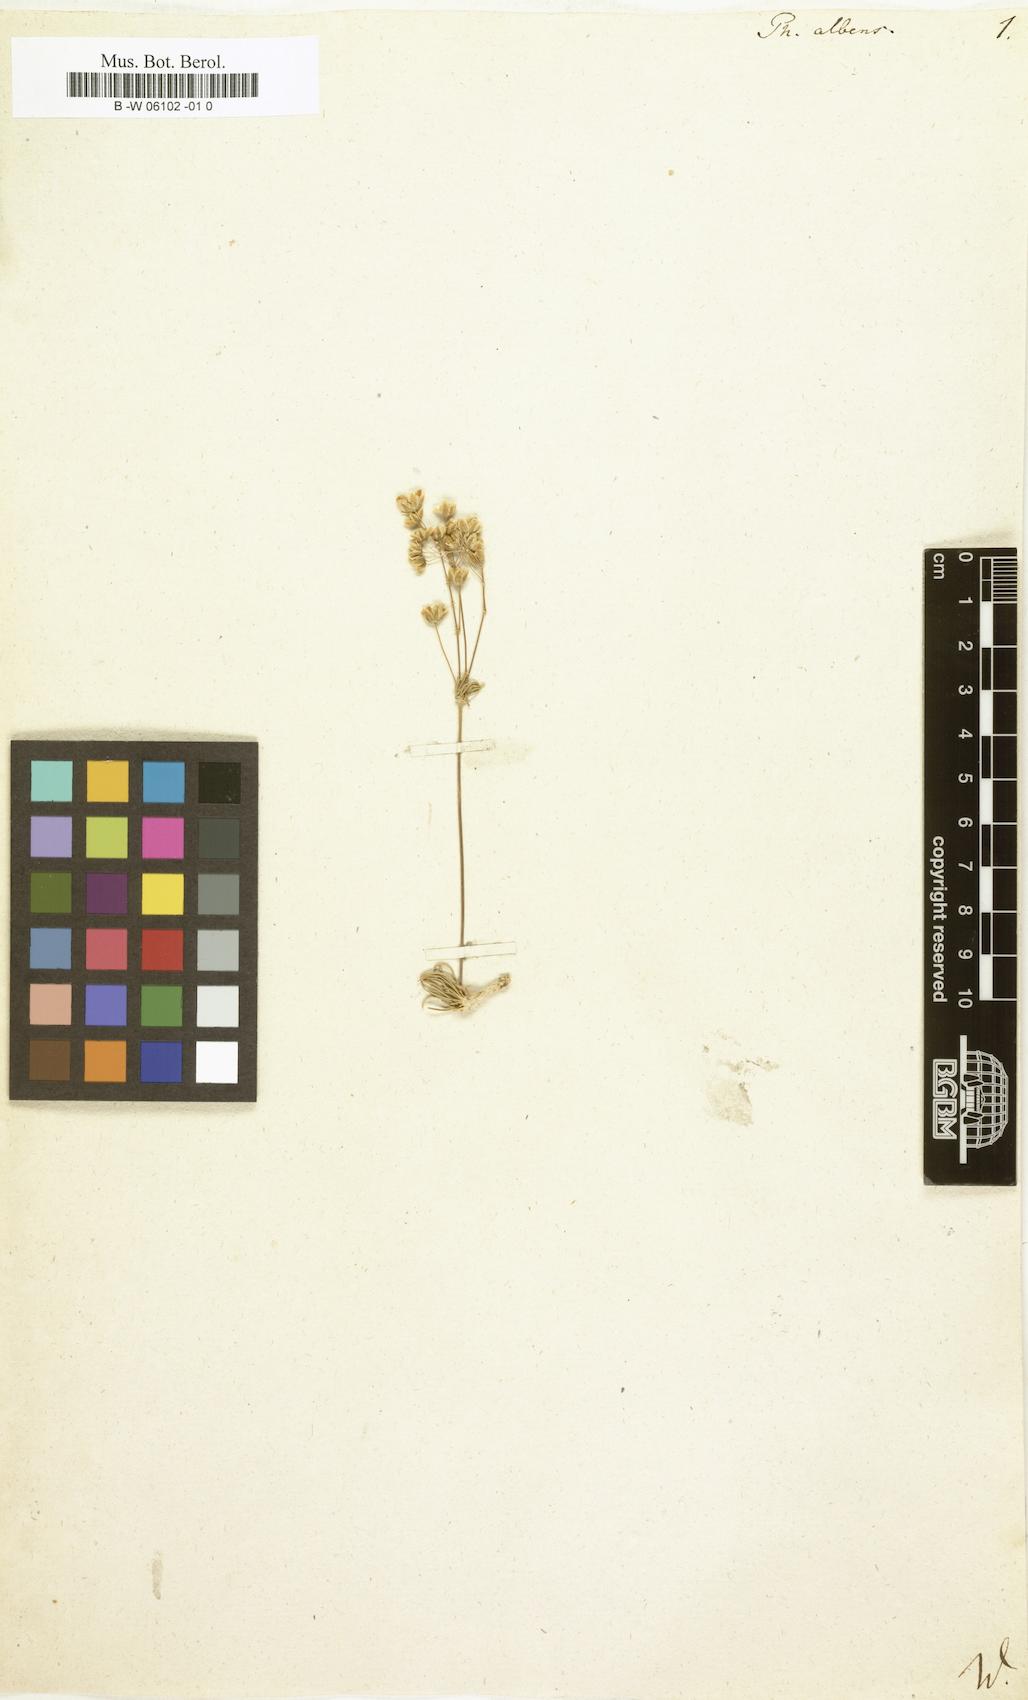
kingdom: Plantae
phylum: Tracheophyta
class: Magnoliopsida
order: Caryophyllales
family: Molluginaceae
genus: Pharnaceum
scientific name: Pharnaceum albens
